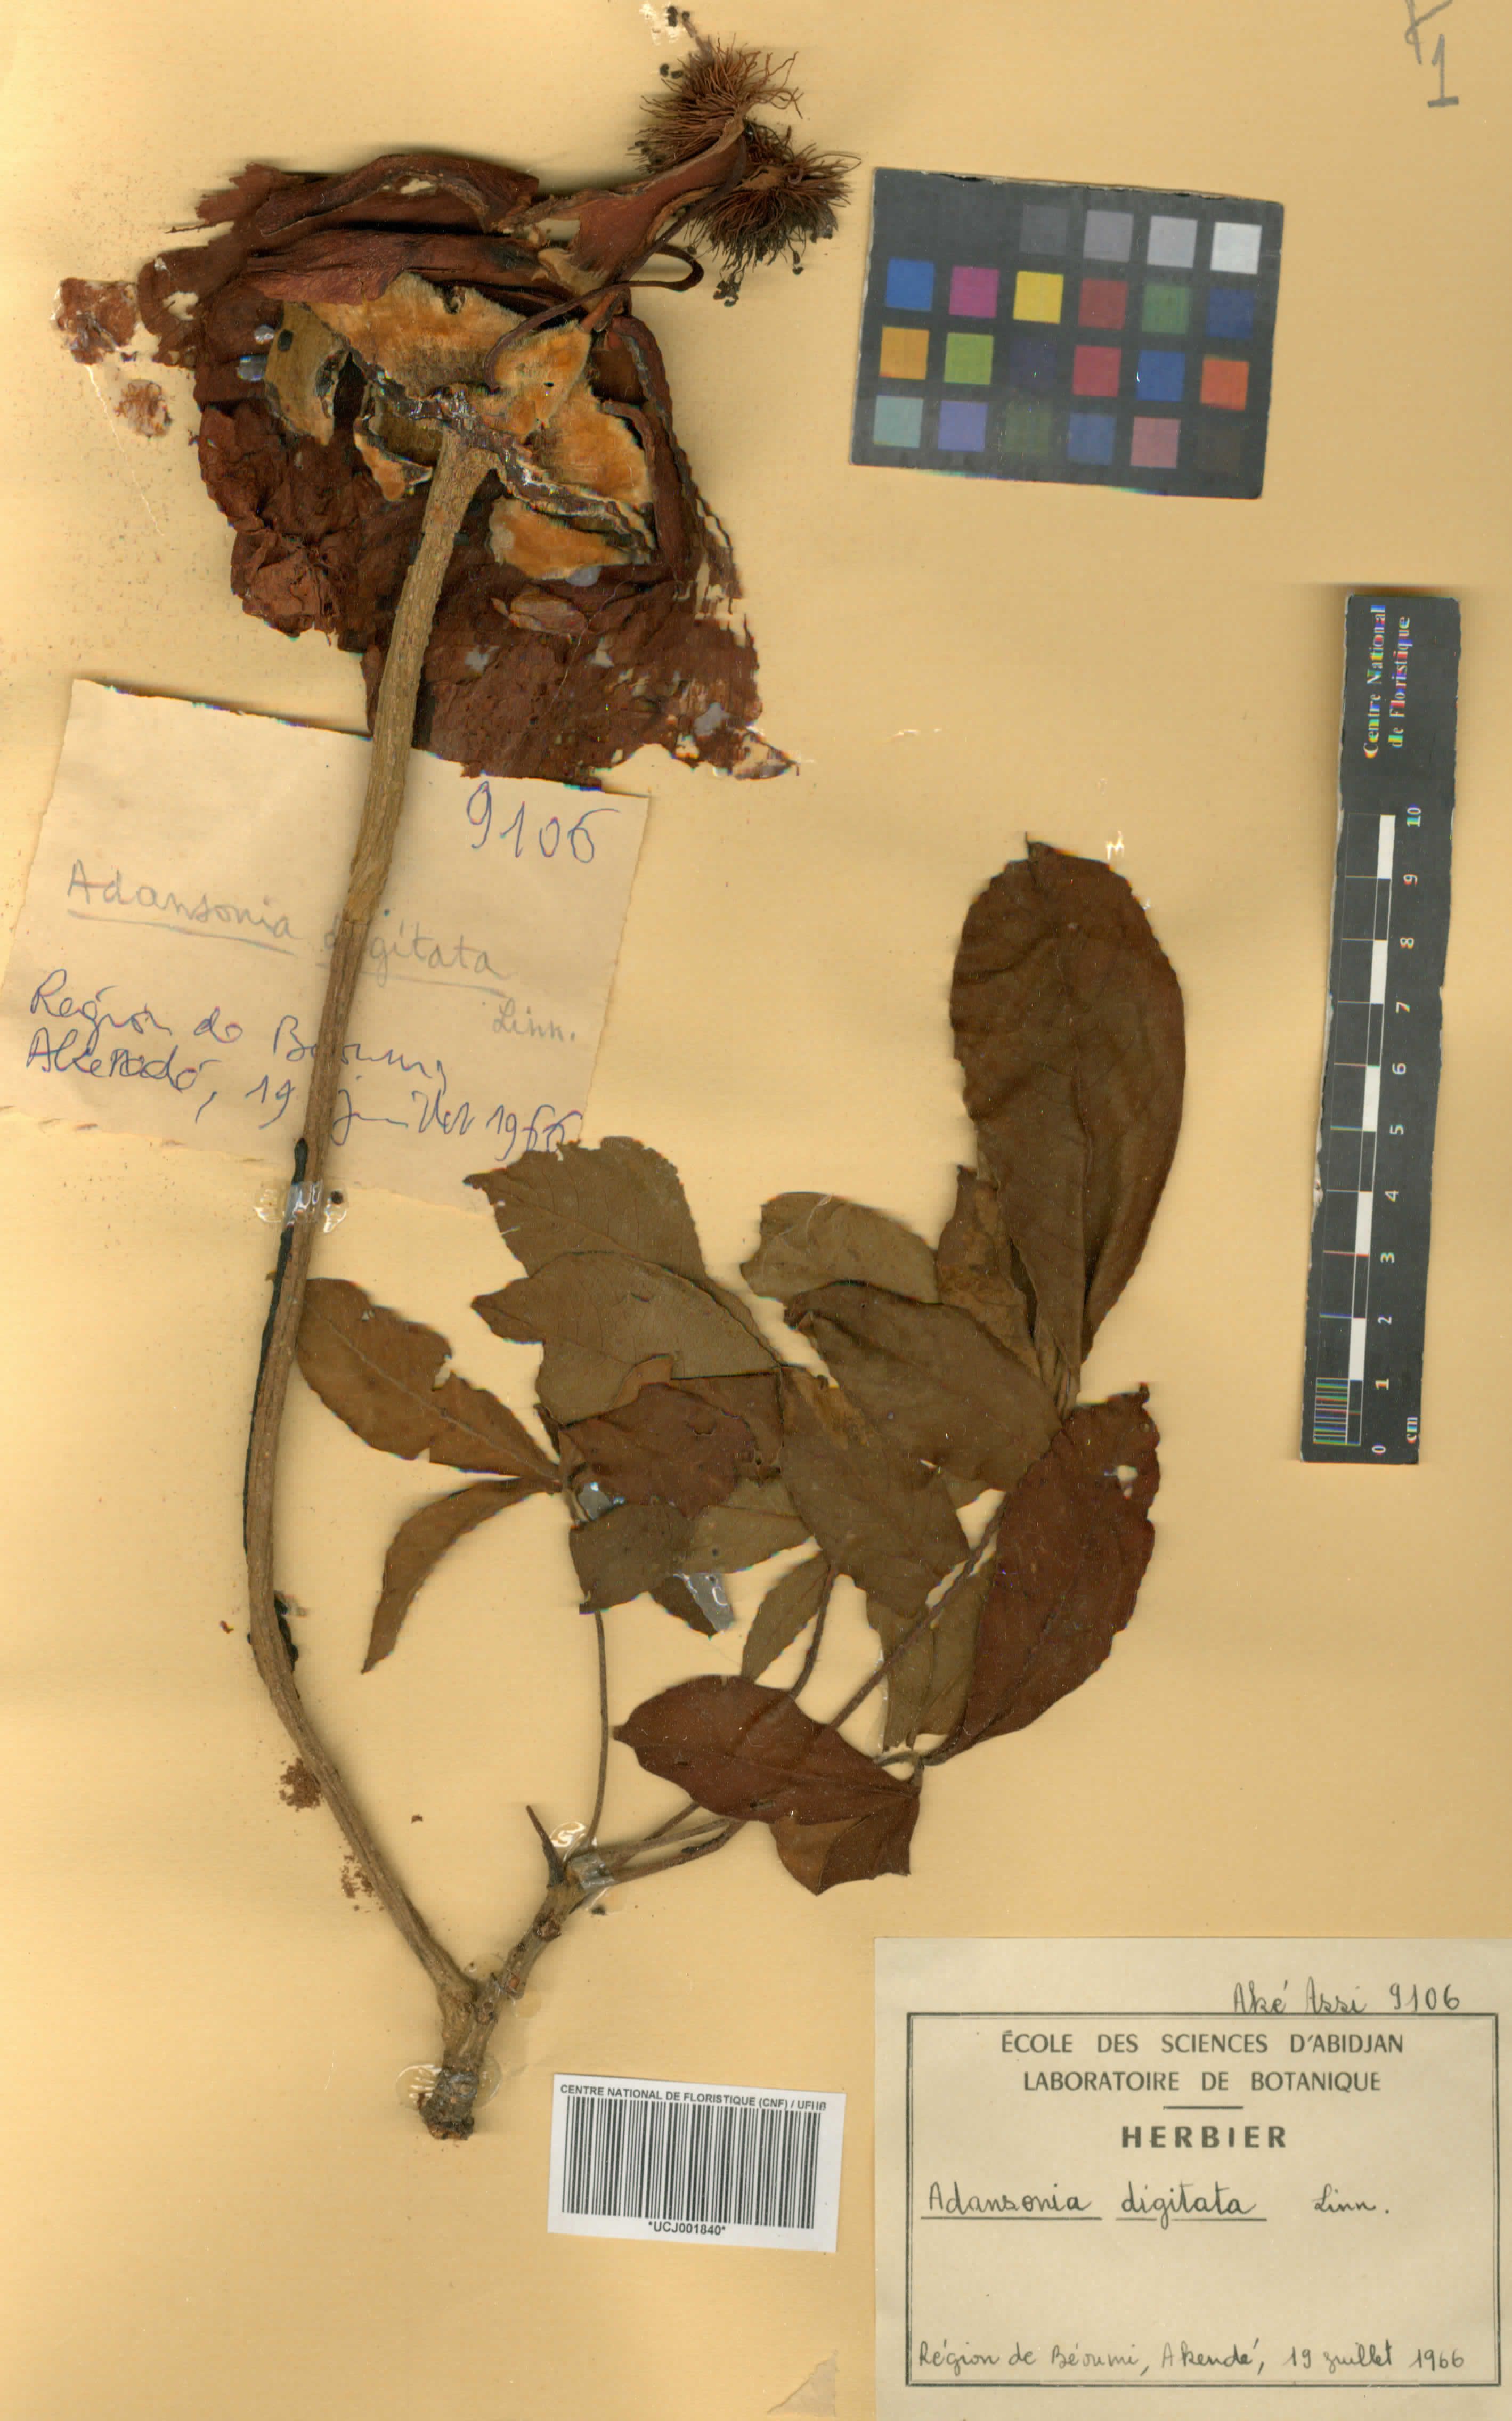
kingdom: Plantae
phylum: Tracheophyta
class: Magnoliopsida
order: Malvales
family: Malvaceae
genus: Adansonia
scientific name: Adansonia digitata
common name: Dead-rat-tree
